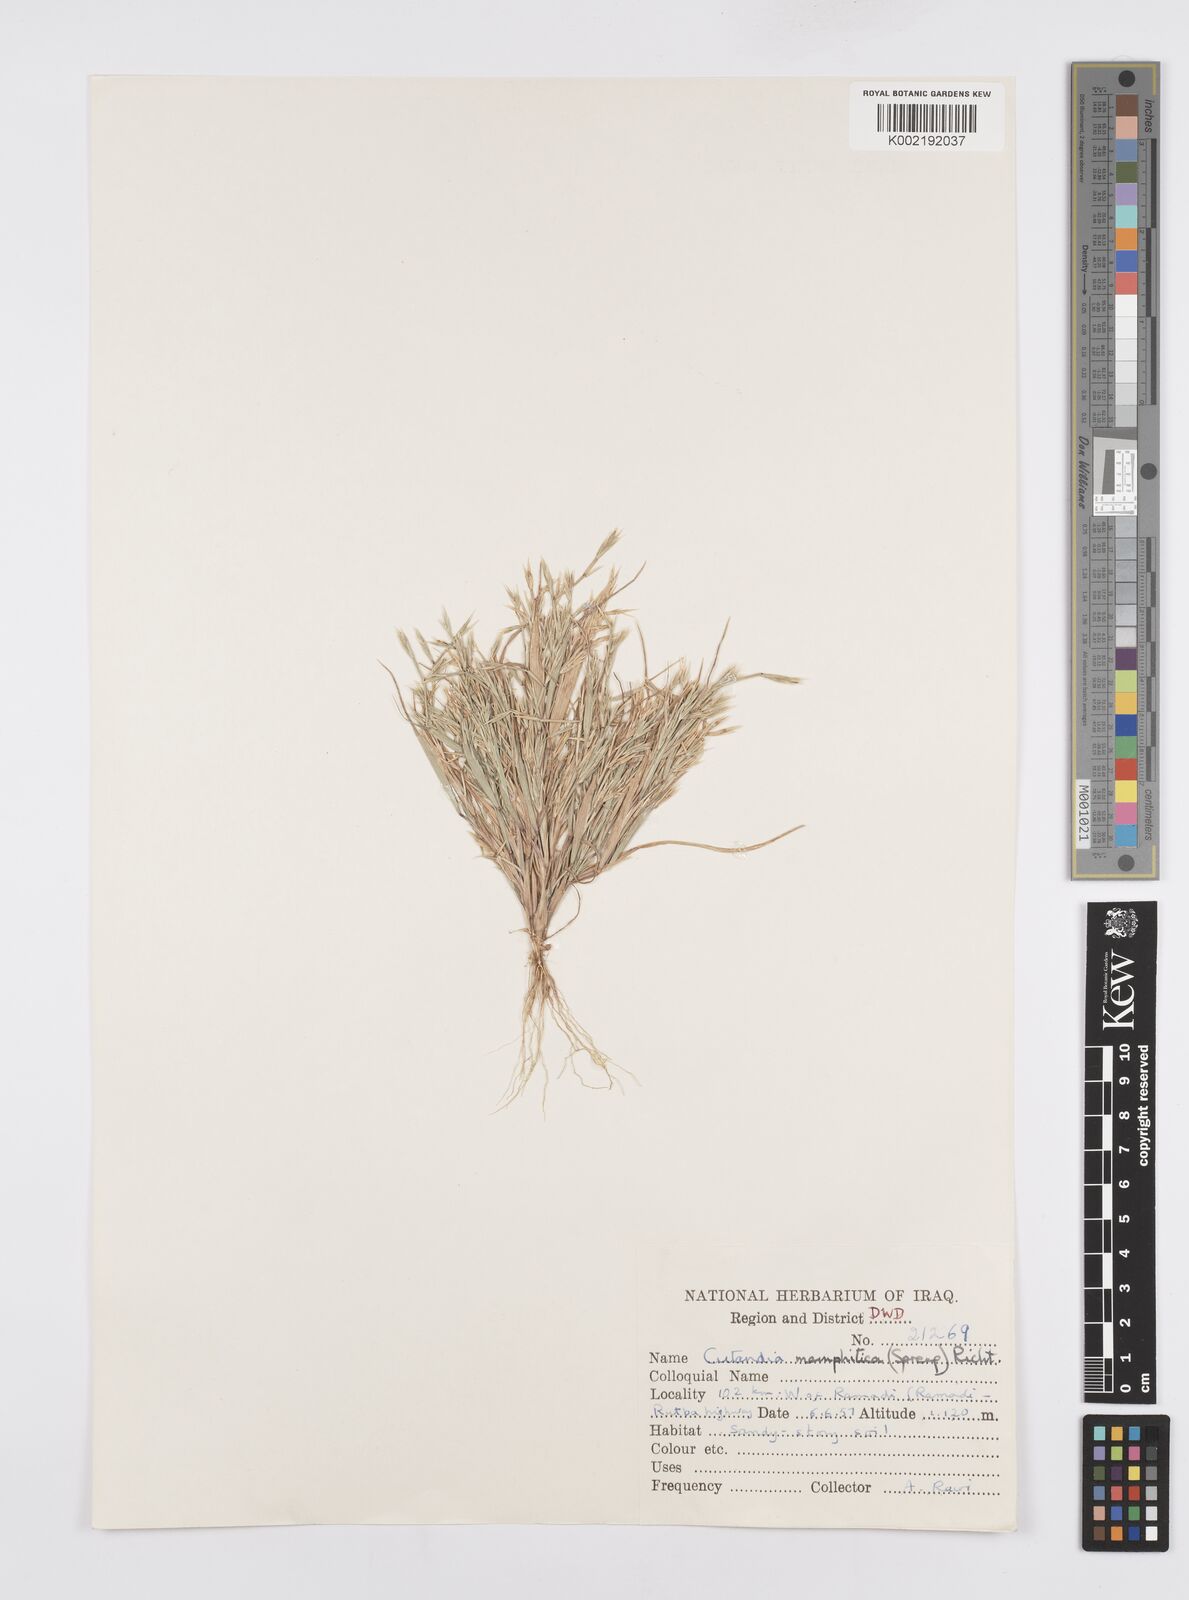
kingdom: Plantae
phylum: Tracheophyta
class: Liliopsida
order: Poales
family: Poaceae
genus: Cutandia
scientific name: Cutandia memphitica
